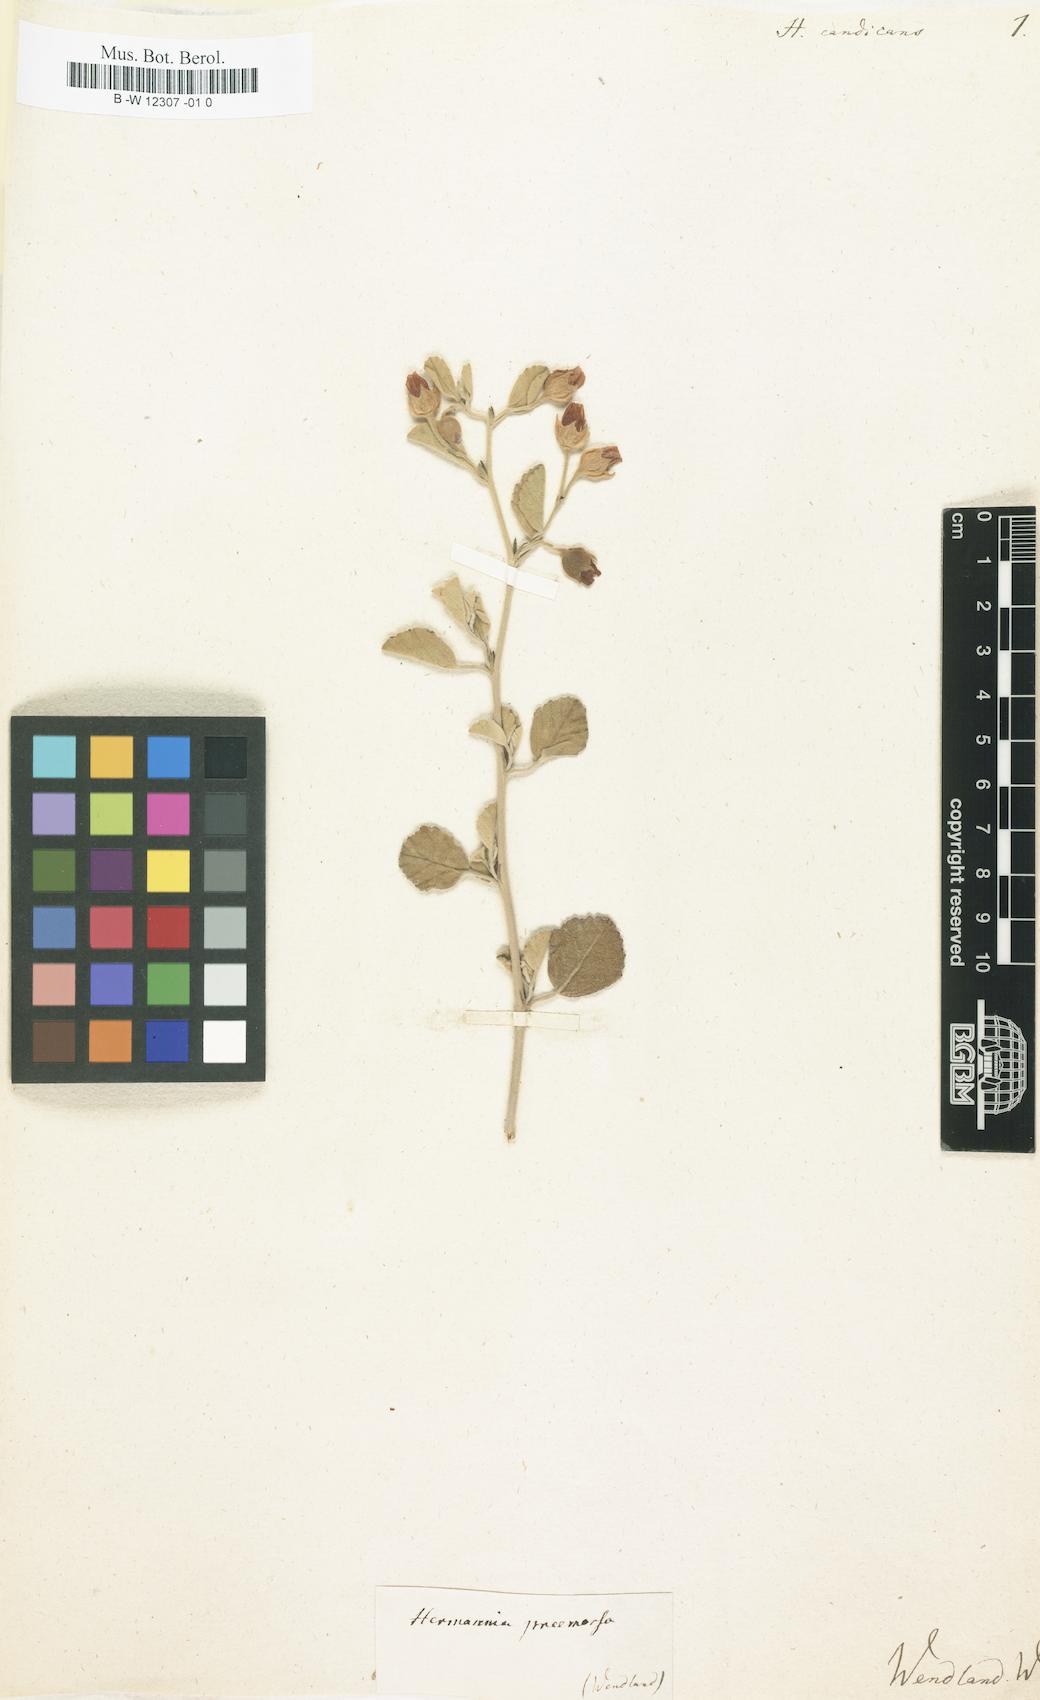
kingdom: Plantae
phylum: Tracheophyta
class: Magnoliopsida
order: Malvales
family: Malvaceae
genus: Hermannia
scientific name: Hermannia
